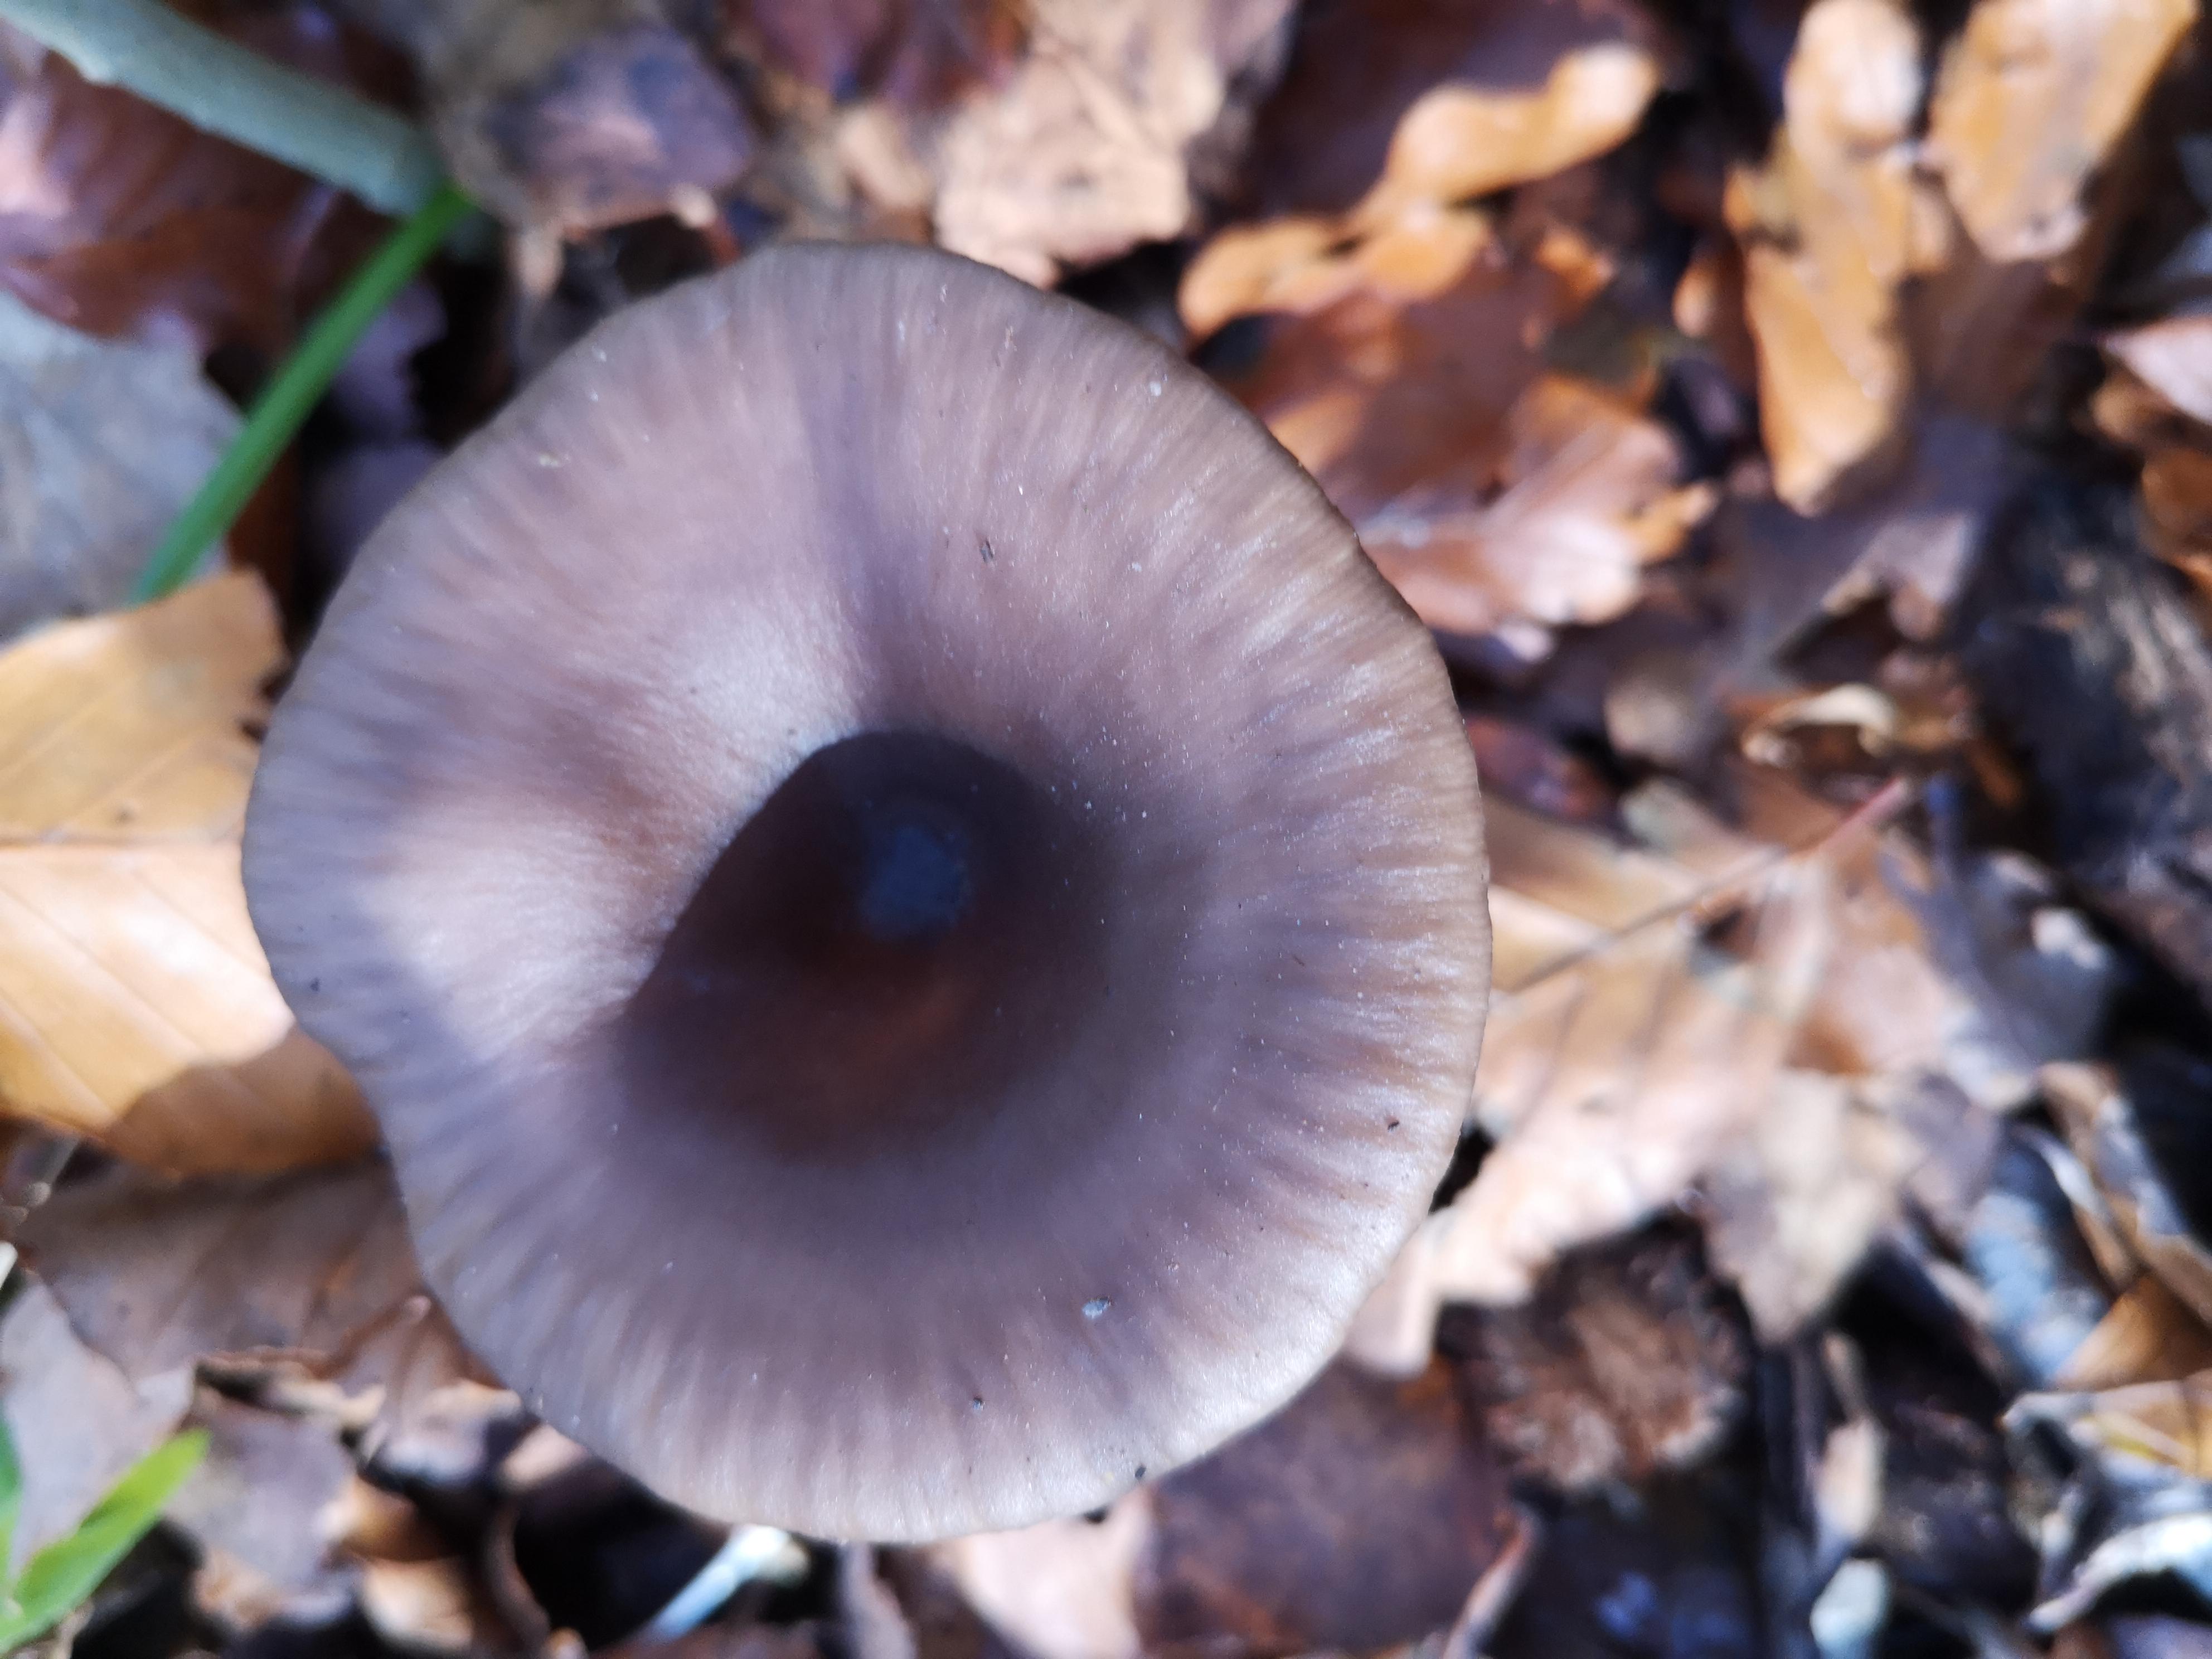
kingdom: Fungi
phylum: Basidiomycota
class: Agaricomycetes
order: Agaricales
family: Pseudoclitocybaceae
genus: Pseudoclitocybe
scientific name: Pseudoclitocybe cyathiformis
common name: almindelig bægertragthat
